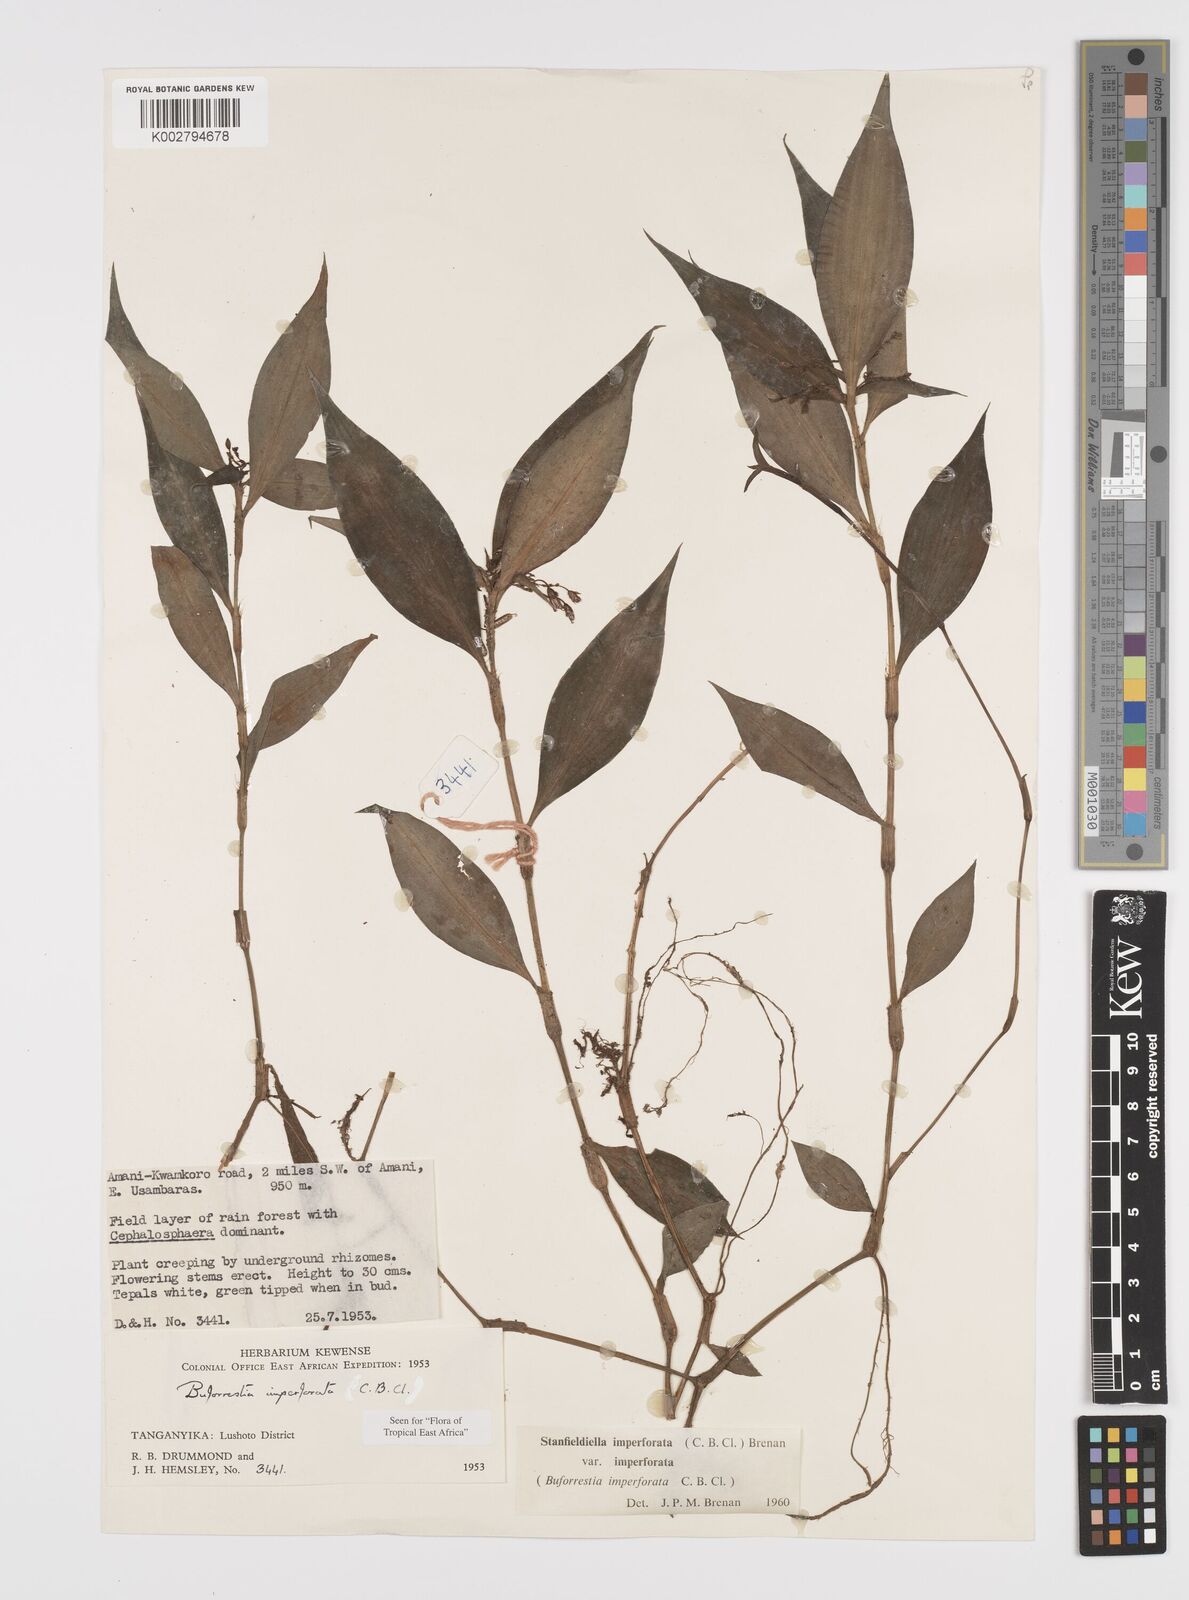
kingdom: Plantae
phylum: Tracheophyta
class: Liliopsida
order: Commelinales
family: Commelinaceae
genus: Stanfieldiella
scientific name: Stanfieldiella imperforata
